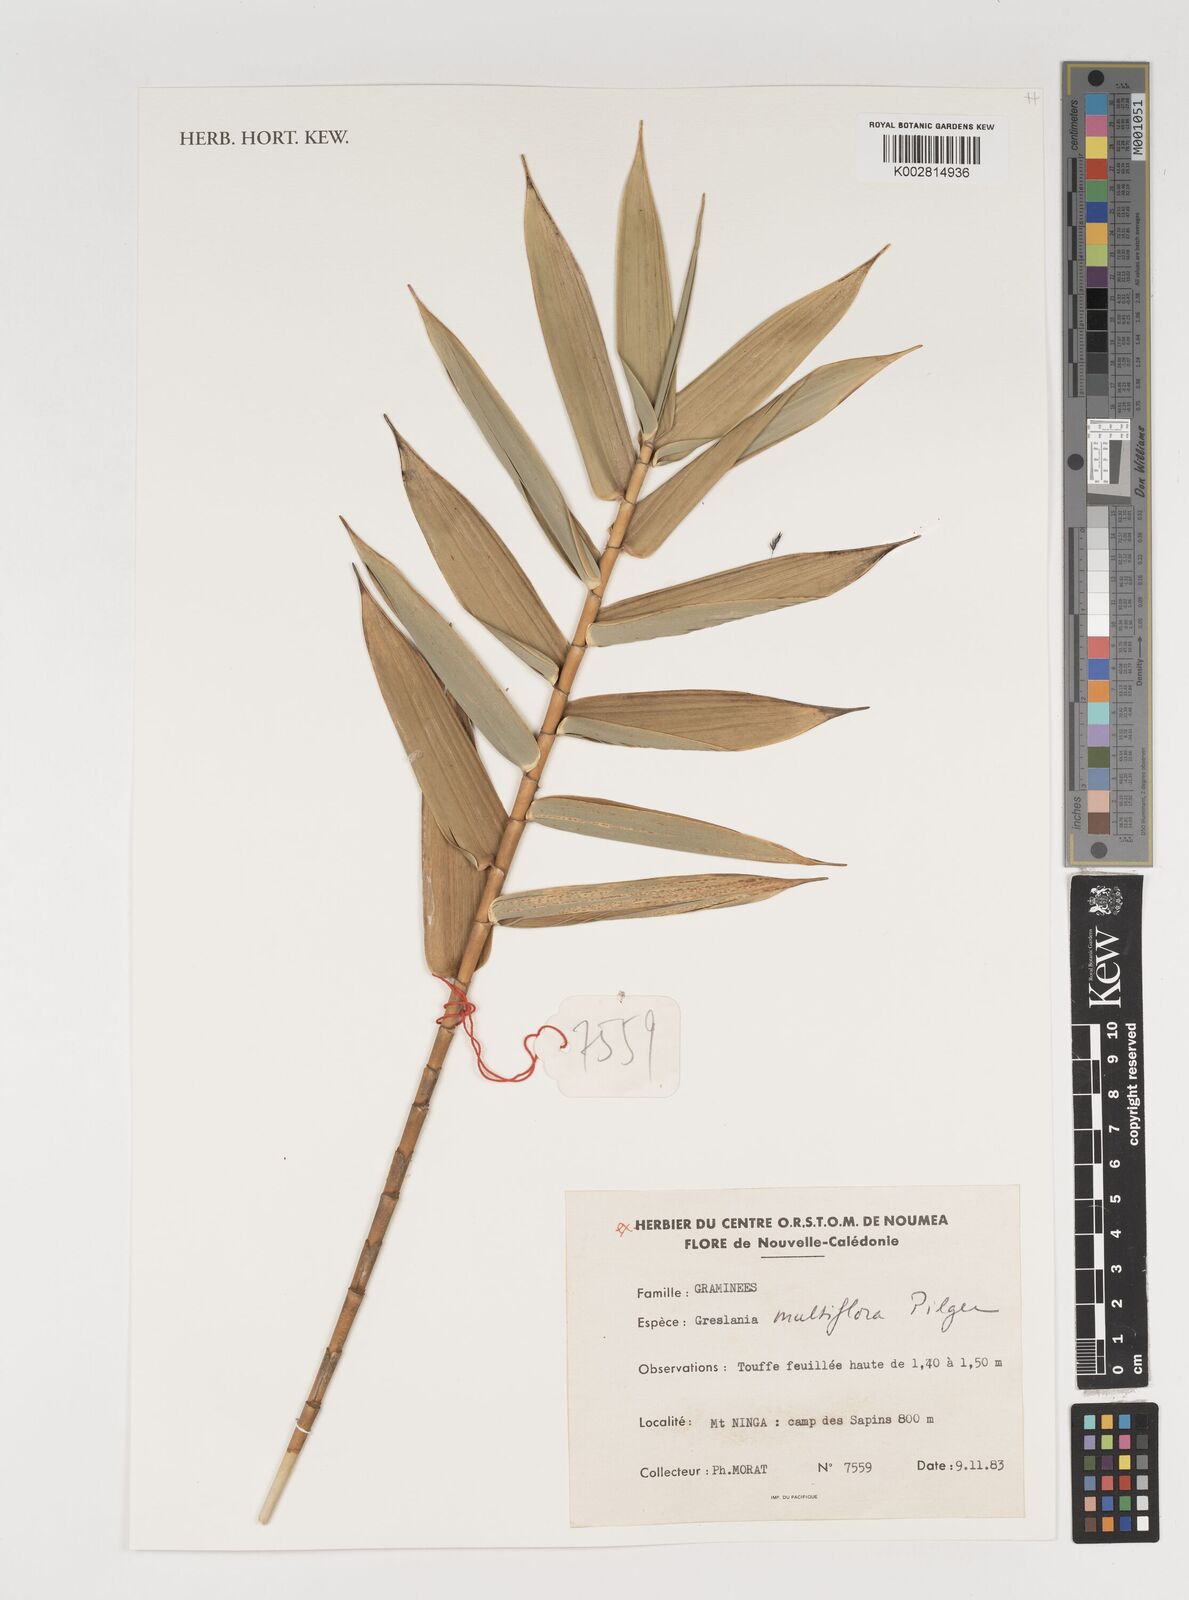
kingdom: Plantae
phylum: Tracheophyta
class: Liliopsida
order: Poales
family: Poaceae
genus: Greslania
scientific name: Greslania circinata
